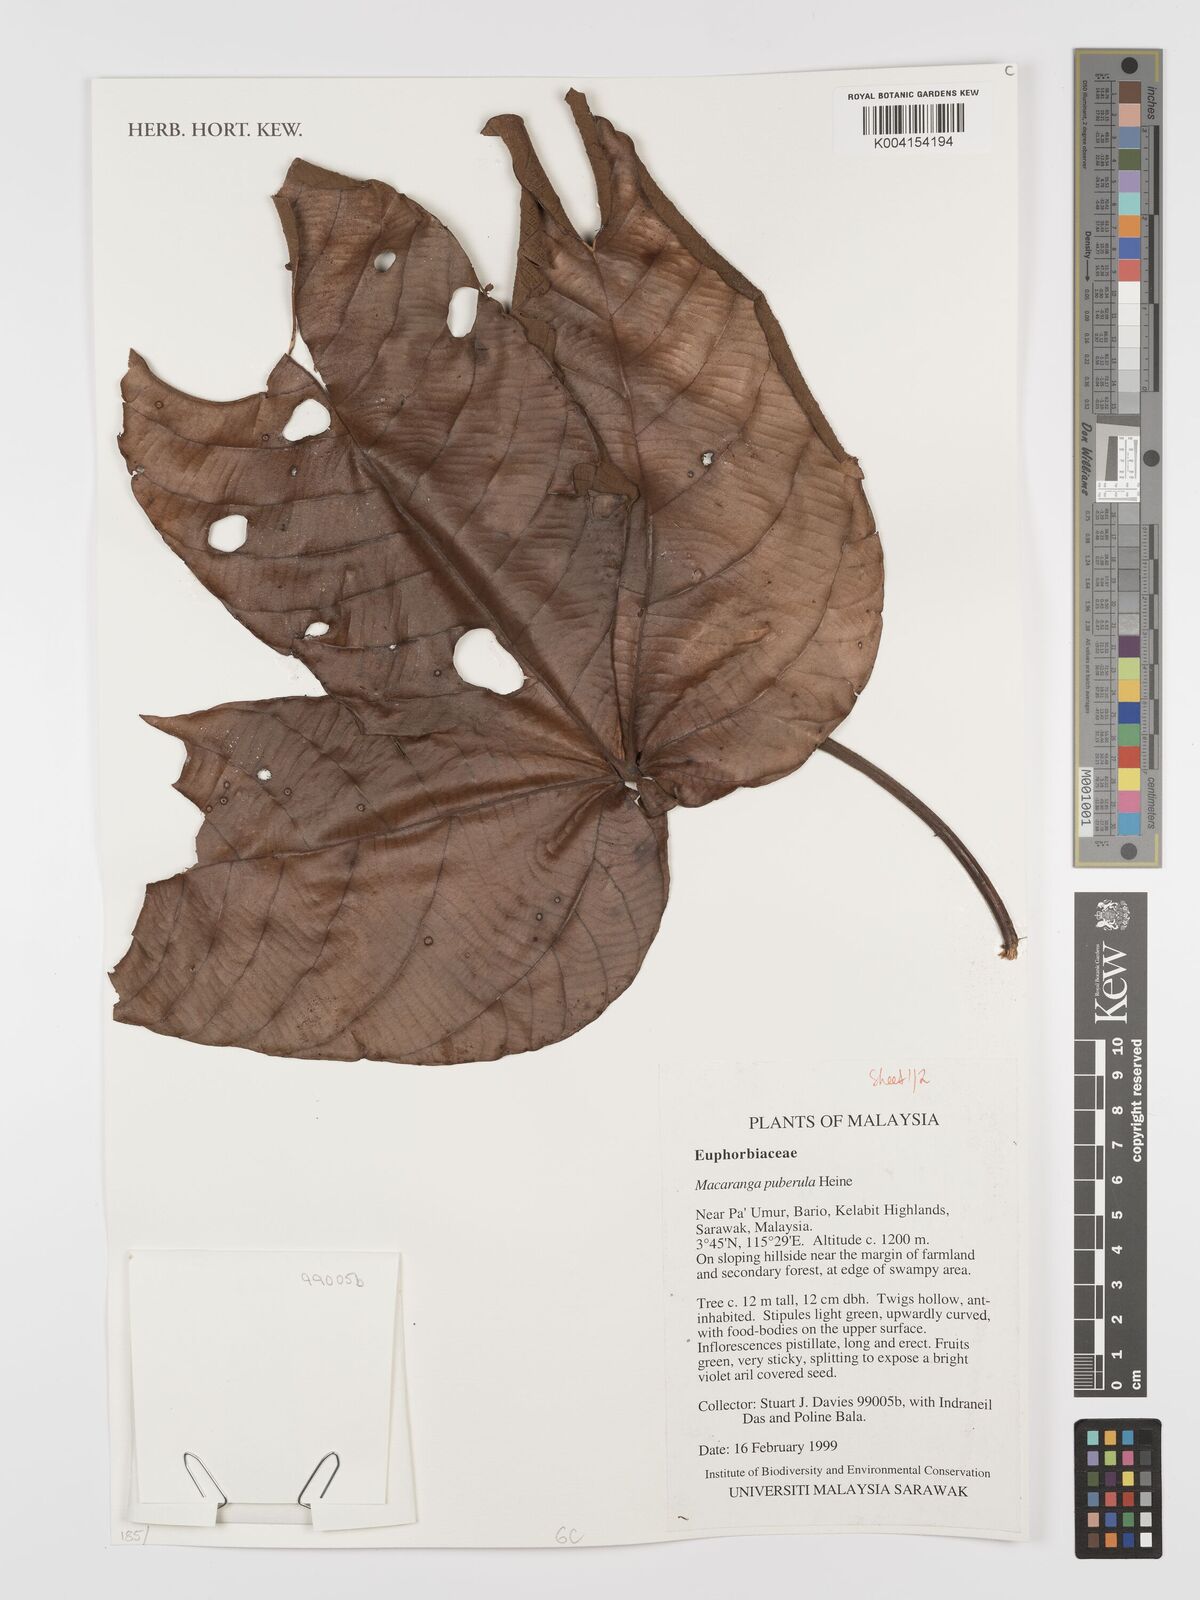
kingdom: Plantae
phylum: Tracheophyta
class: Magnoliopsida
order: Malpighiales
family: Euphorbiaceae
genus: Macaranga
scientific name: Macaranga puberula
